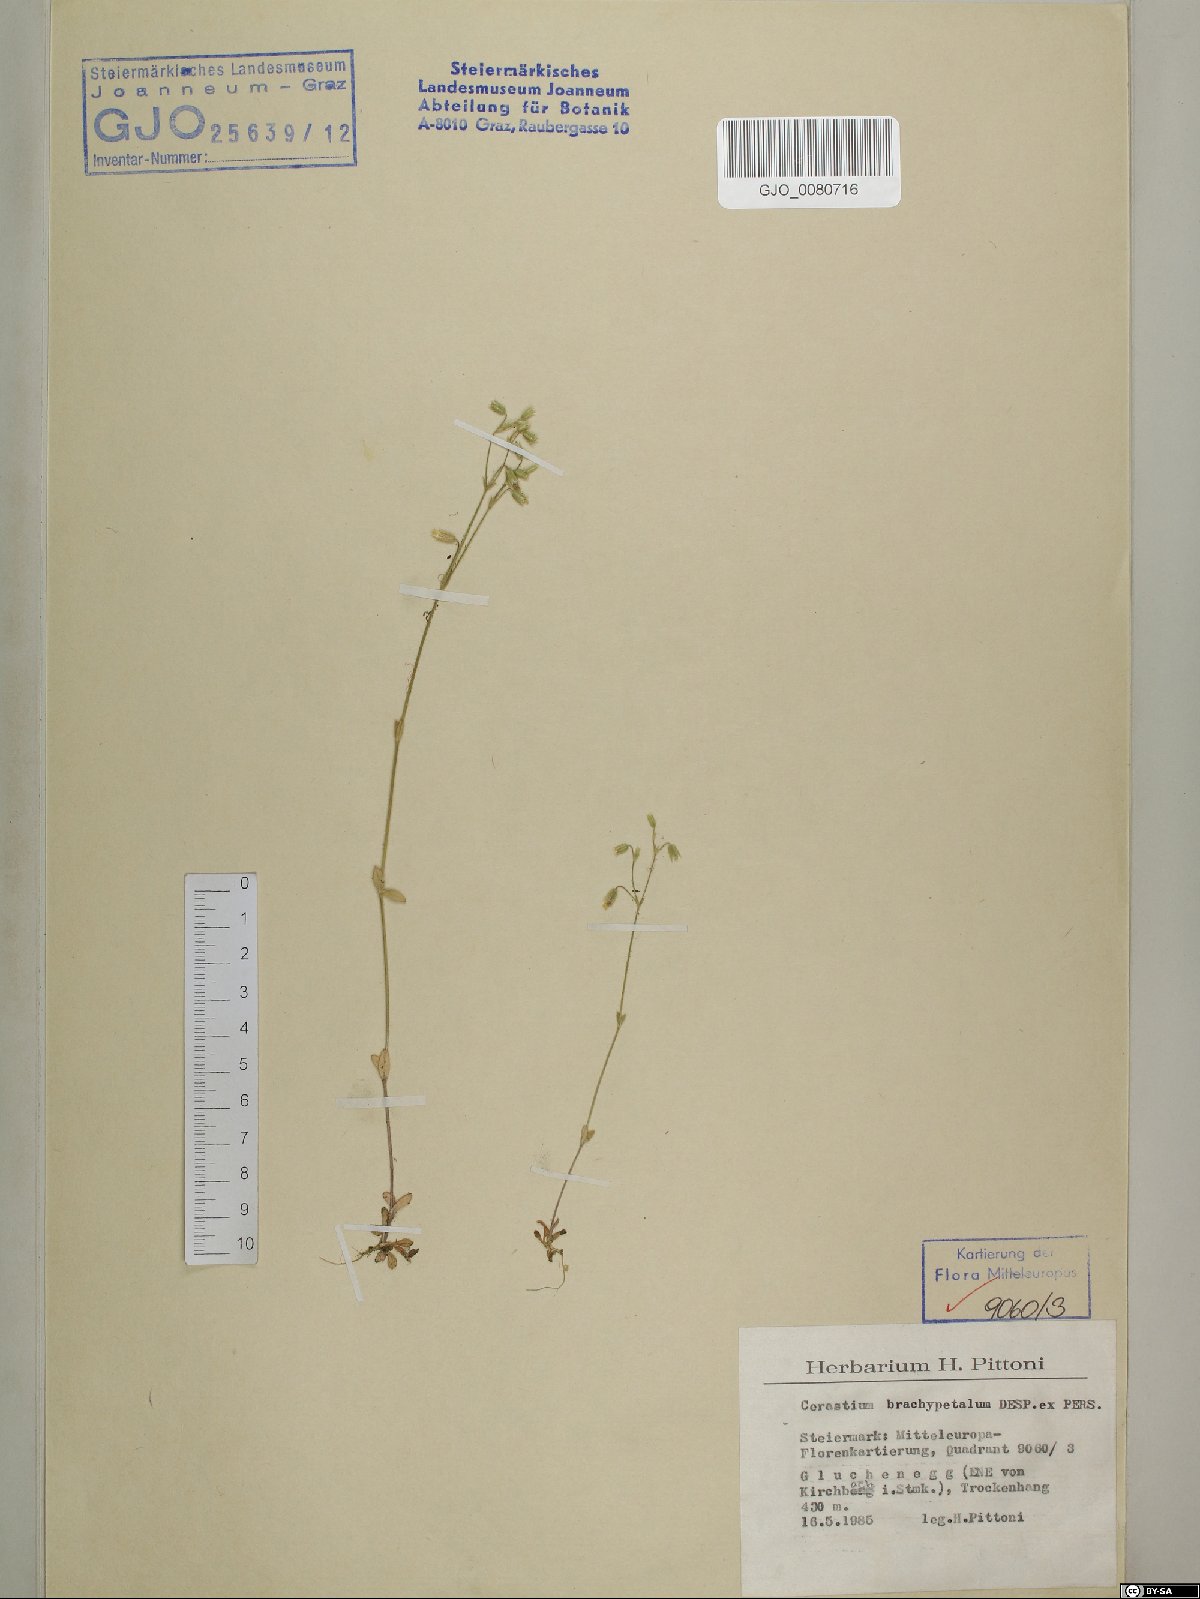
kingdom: Plantae
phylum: Tracheophyta
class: Magnoliopsida
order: Caryophyllales
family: Caryophyllaceae
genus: Cerastium
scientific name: Cerastium brachypetalum
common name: Grey mouse-ear
